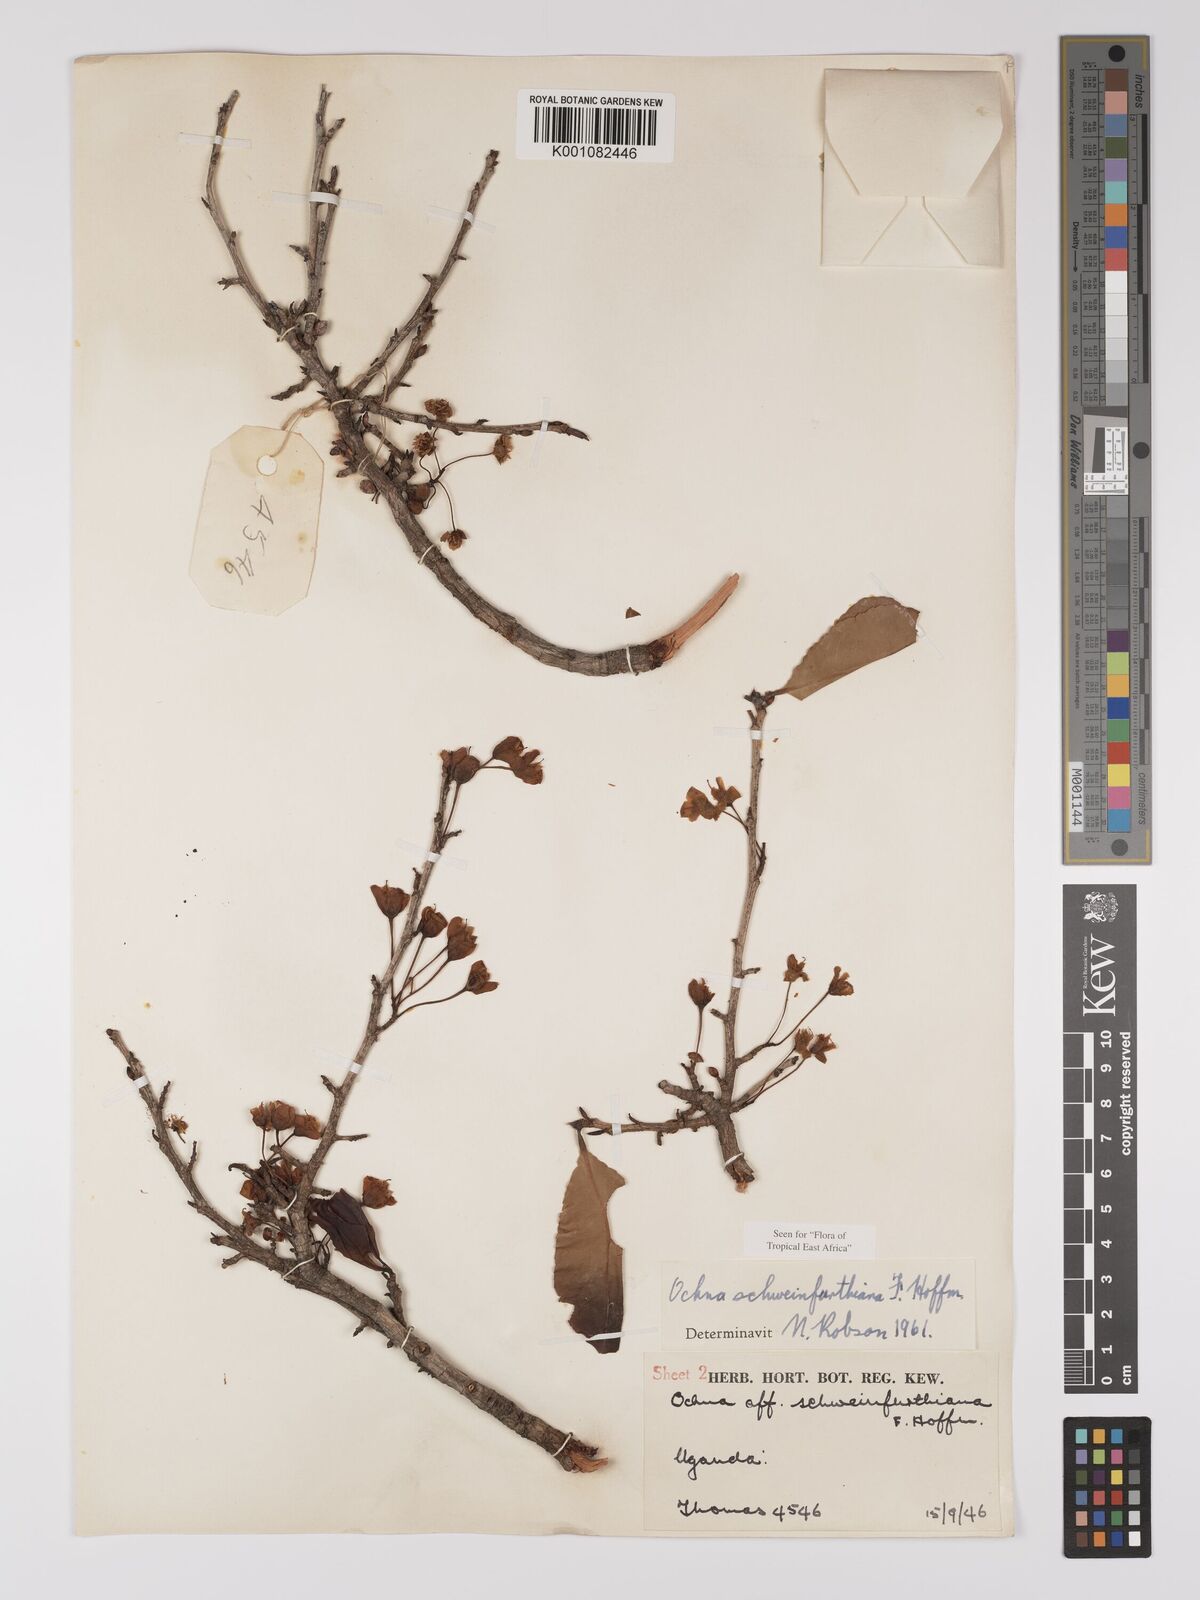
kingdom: Plantae
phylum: Tracheophyta
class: Magnoliopsida
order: Malpighiales
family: Ochnaceae
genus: Ochna
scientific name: Ochna schweinfurthiana
